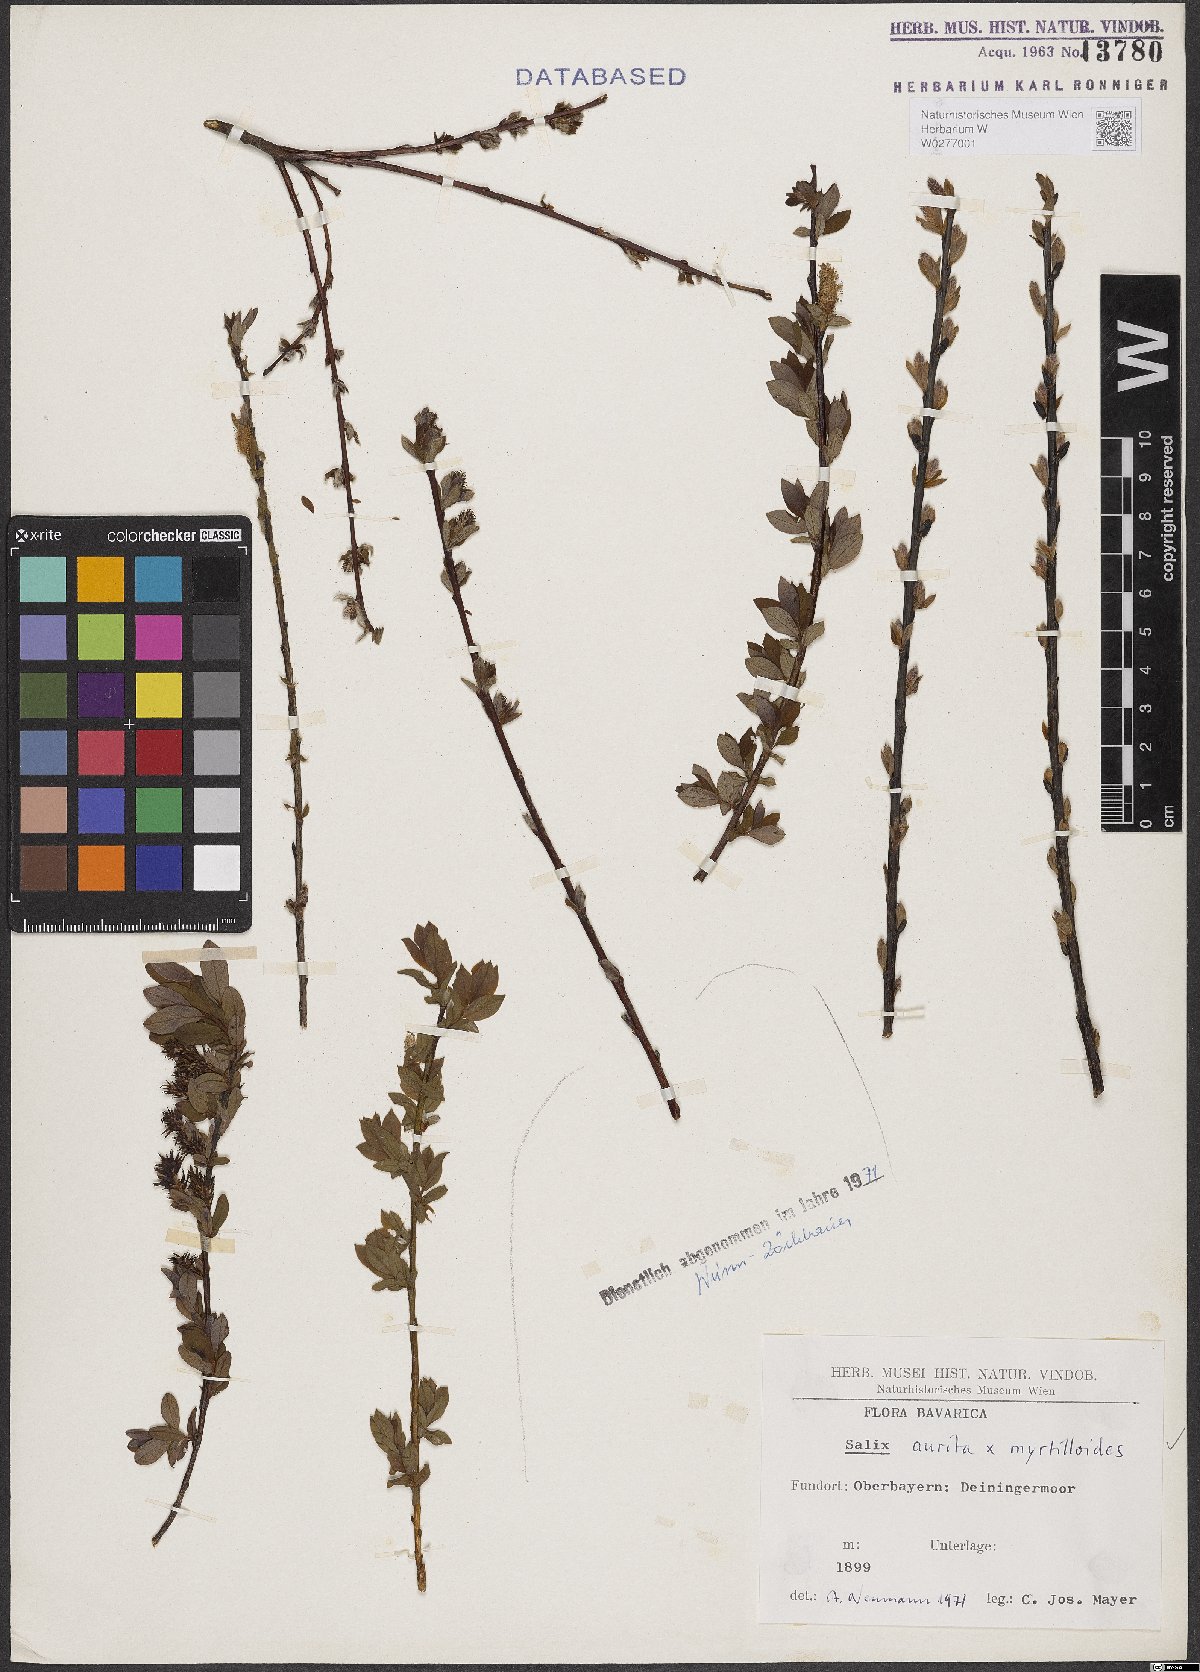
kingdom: Plantae
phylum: Tracheophyta
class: Magnoliopsida
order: Malpighiales
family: Salicaceae
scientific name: Salicaceae
